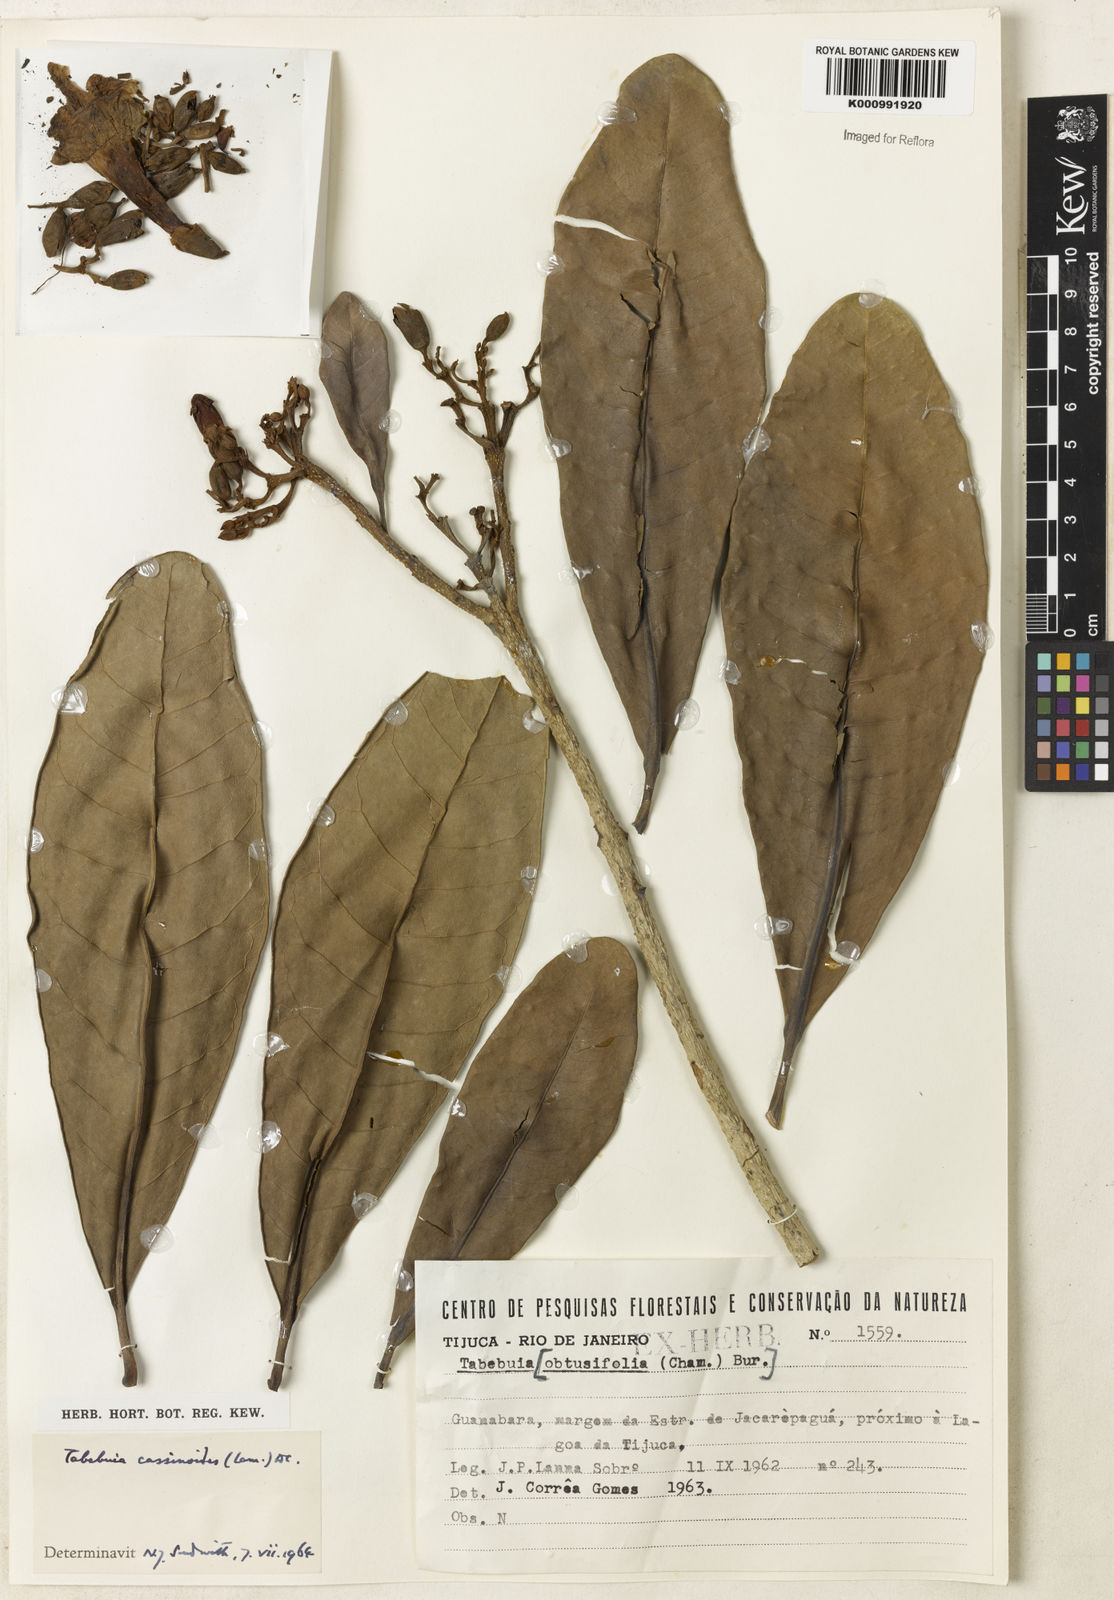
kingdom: Plantae
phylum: Tracheophyta
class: Magnoliopsida
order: Lamiales
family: Bignoniaceae
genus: Tabebuia
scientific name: Tabebuia cassinoides
